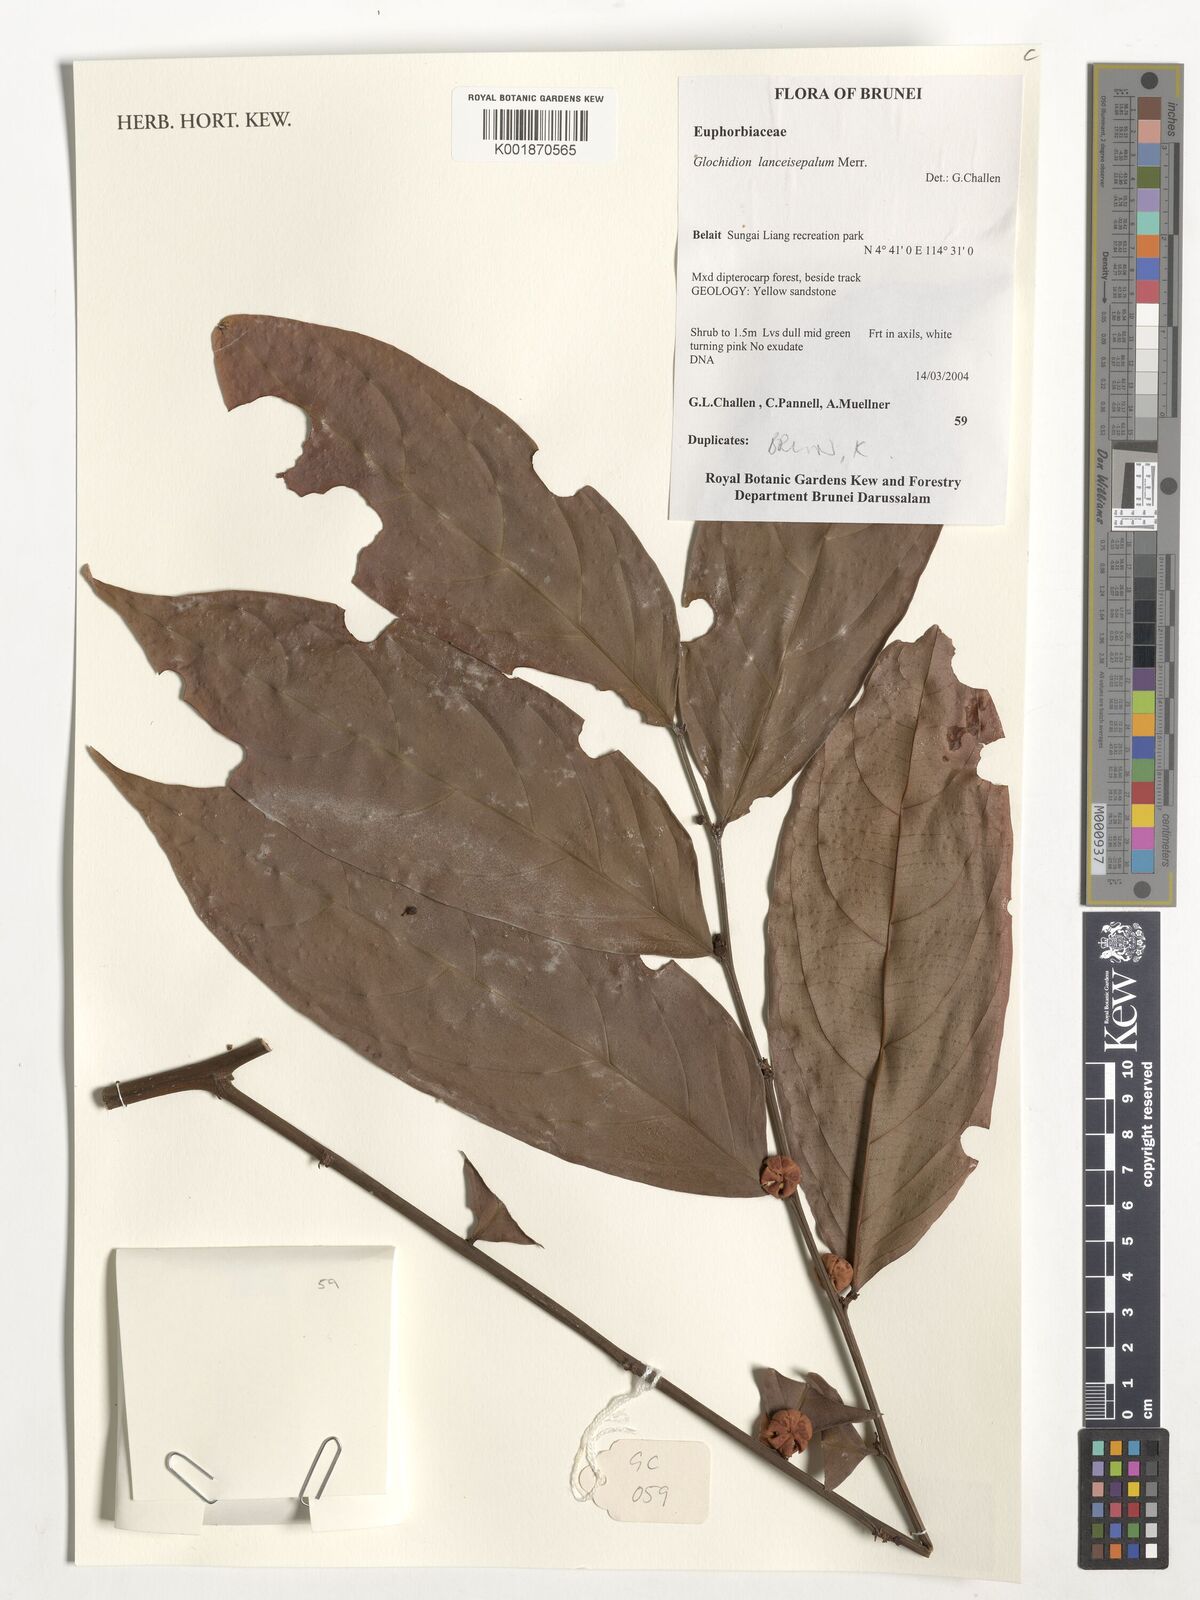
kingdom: Plantae
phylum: Tracheophyta
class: Magnoliopsida
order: Malpighiales
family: Phyllanthaceae
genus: Glochidion
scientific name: Glochidion lancisepalum
